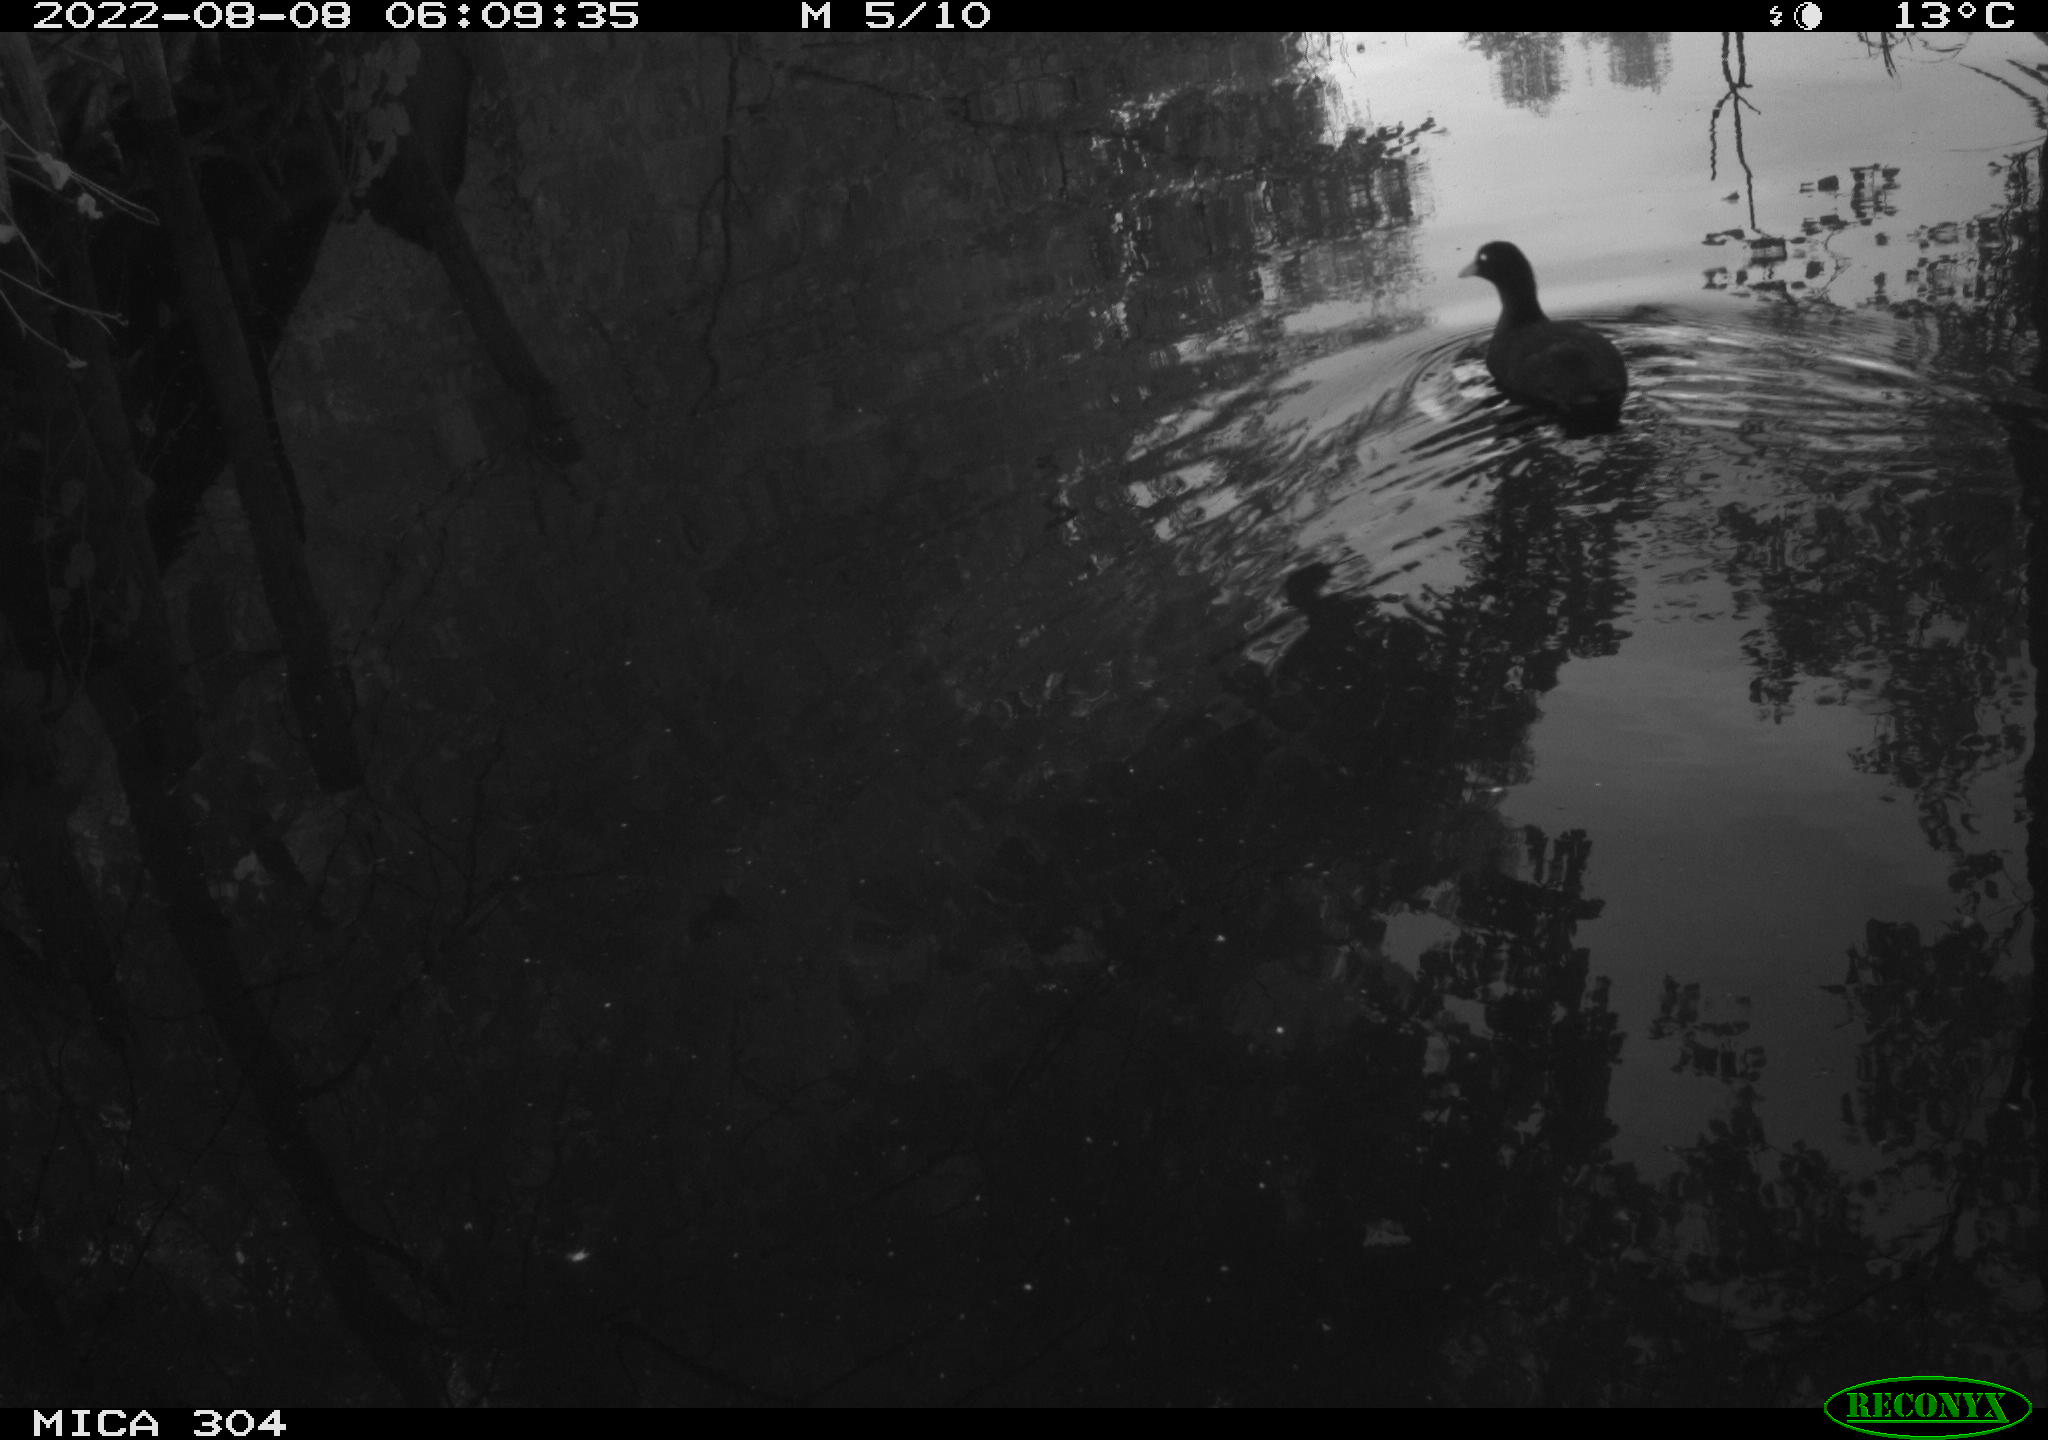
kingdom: Animalia
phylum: Chordata
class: Aves
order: Gruiformes
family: Rallidae
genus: Fulica
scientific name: Fulica atra
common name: Eurasian coot
